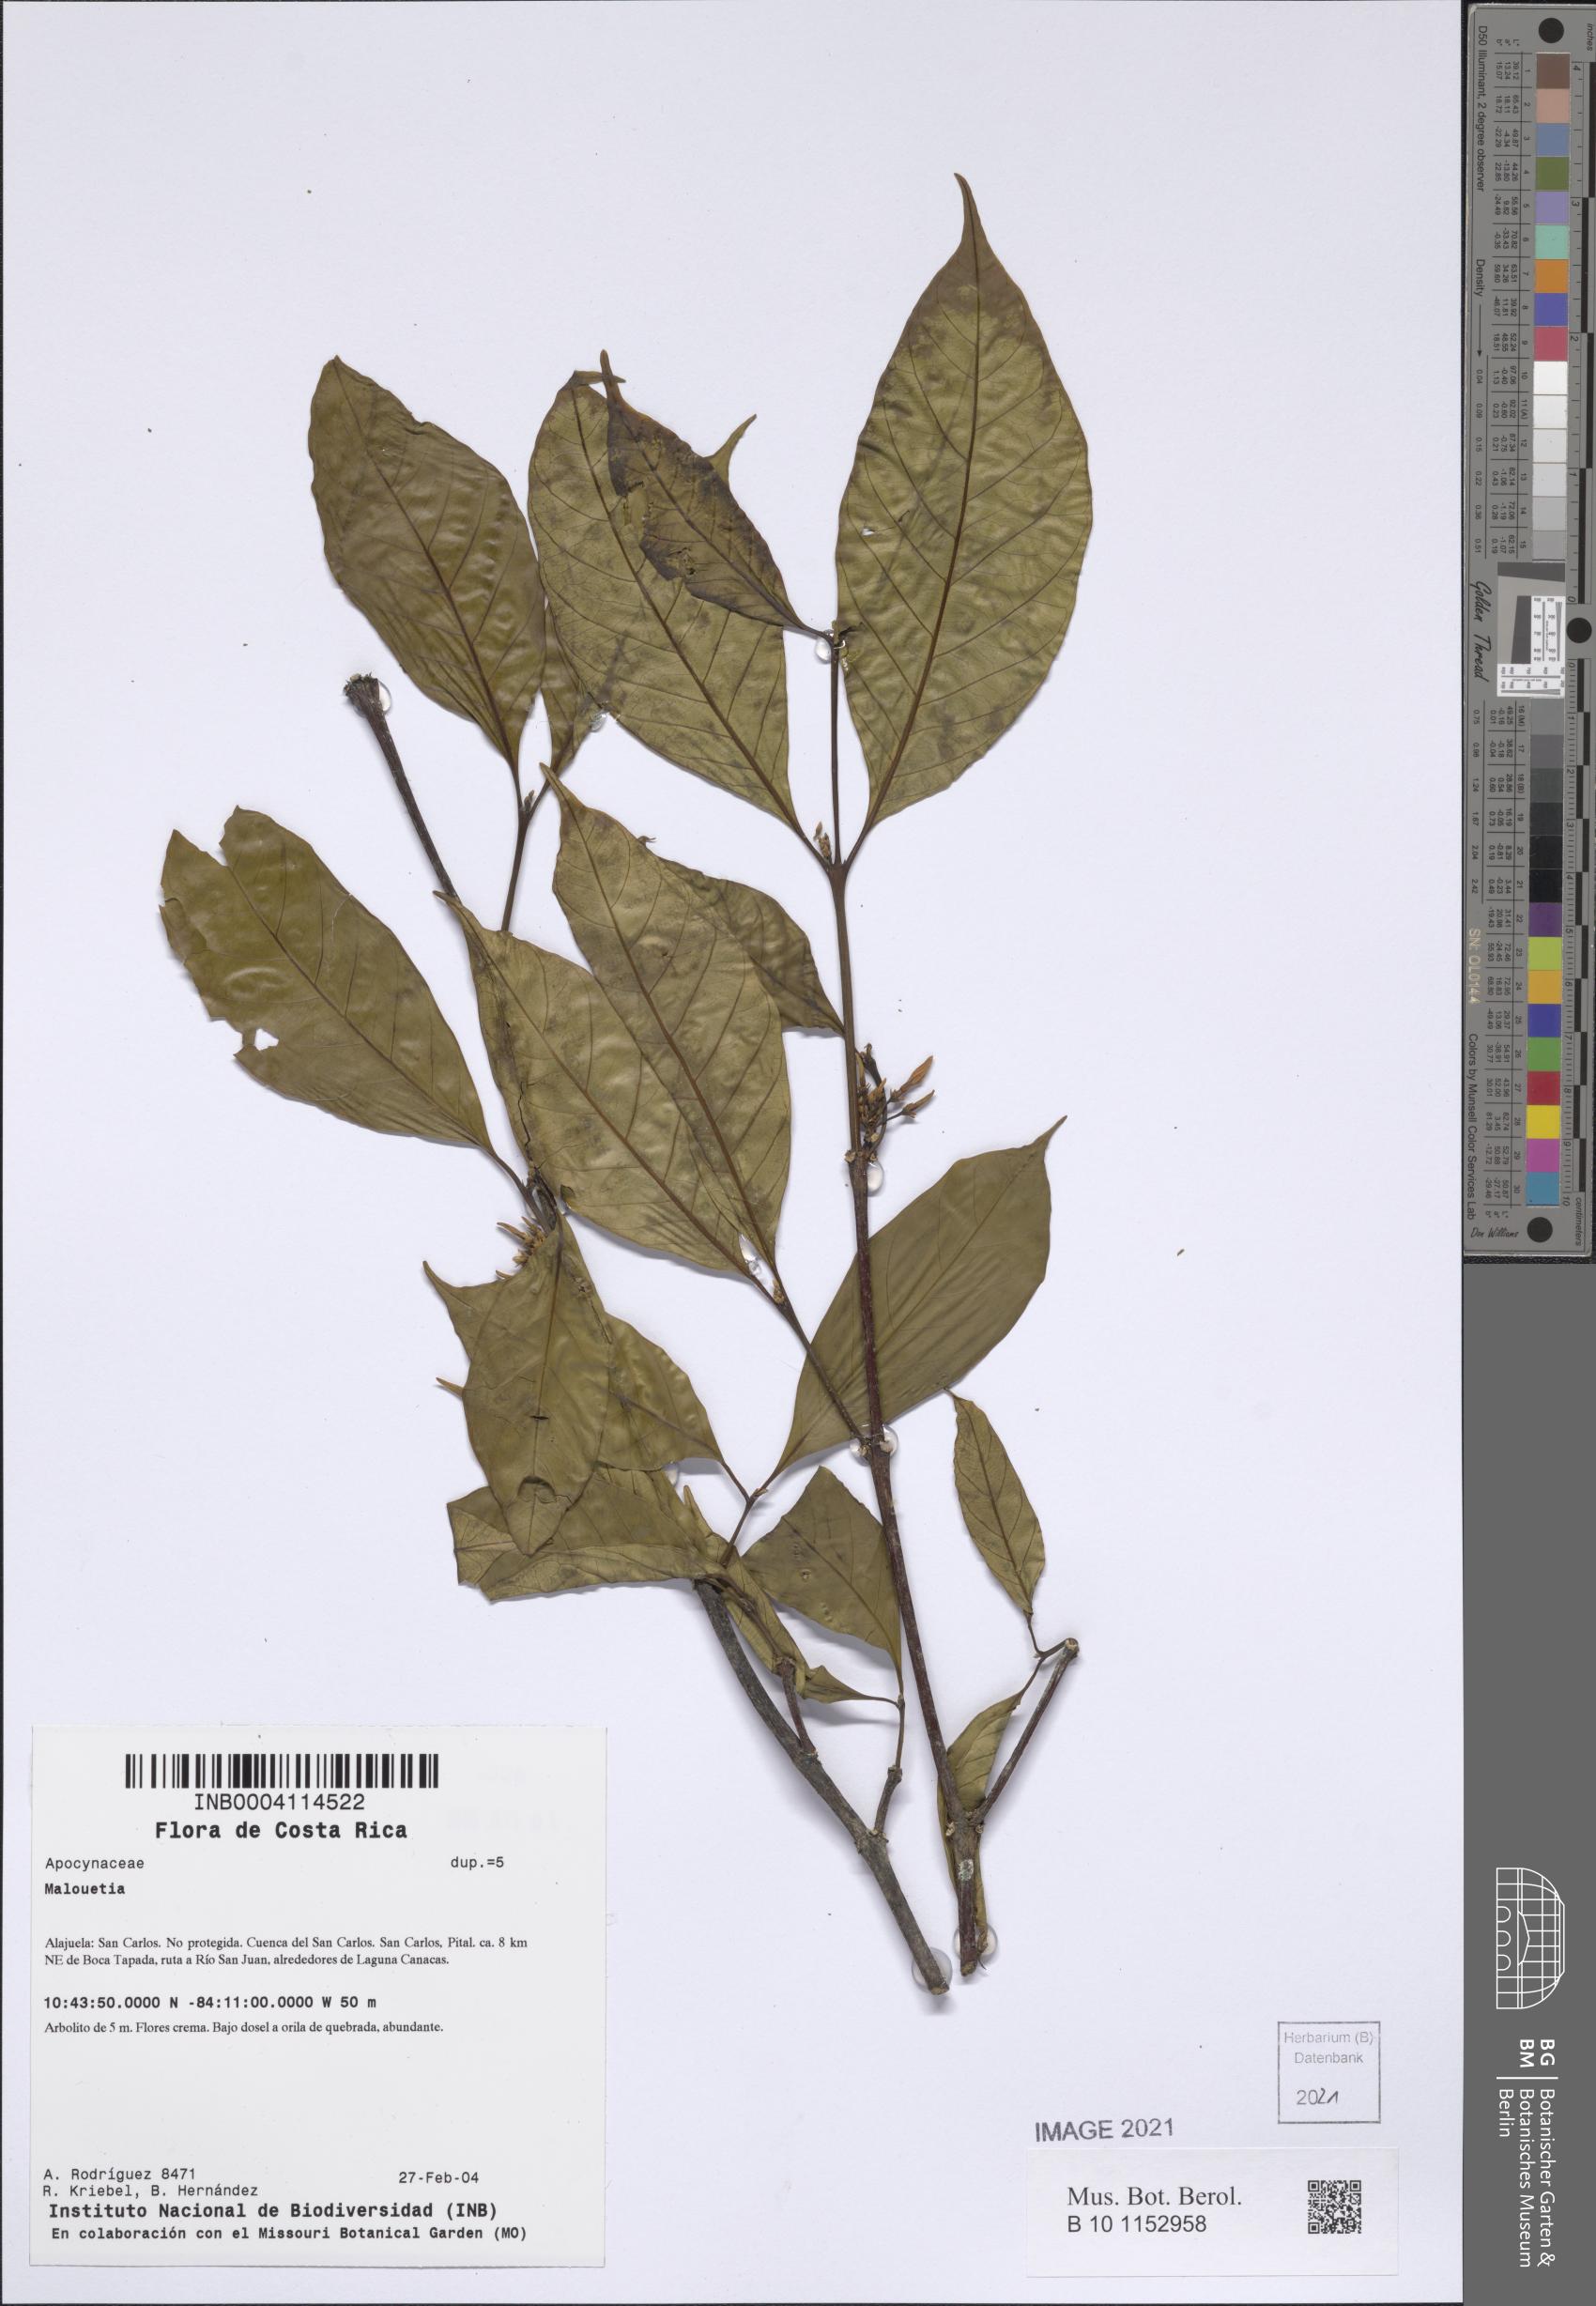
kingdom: Plantae
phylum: Tracheophyta
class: Magnoliopsida
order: Gentianales
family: Apocynaceae
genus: Malouetia
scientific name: Malouetia guatemalensis
